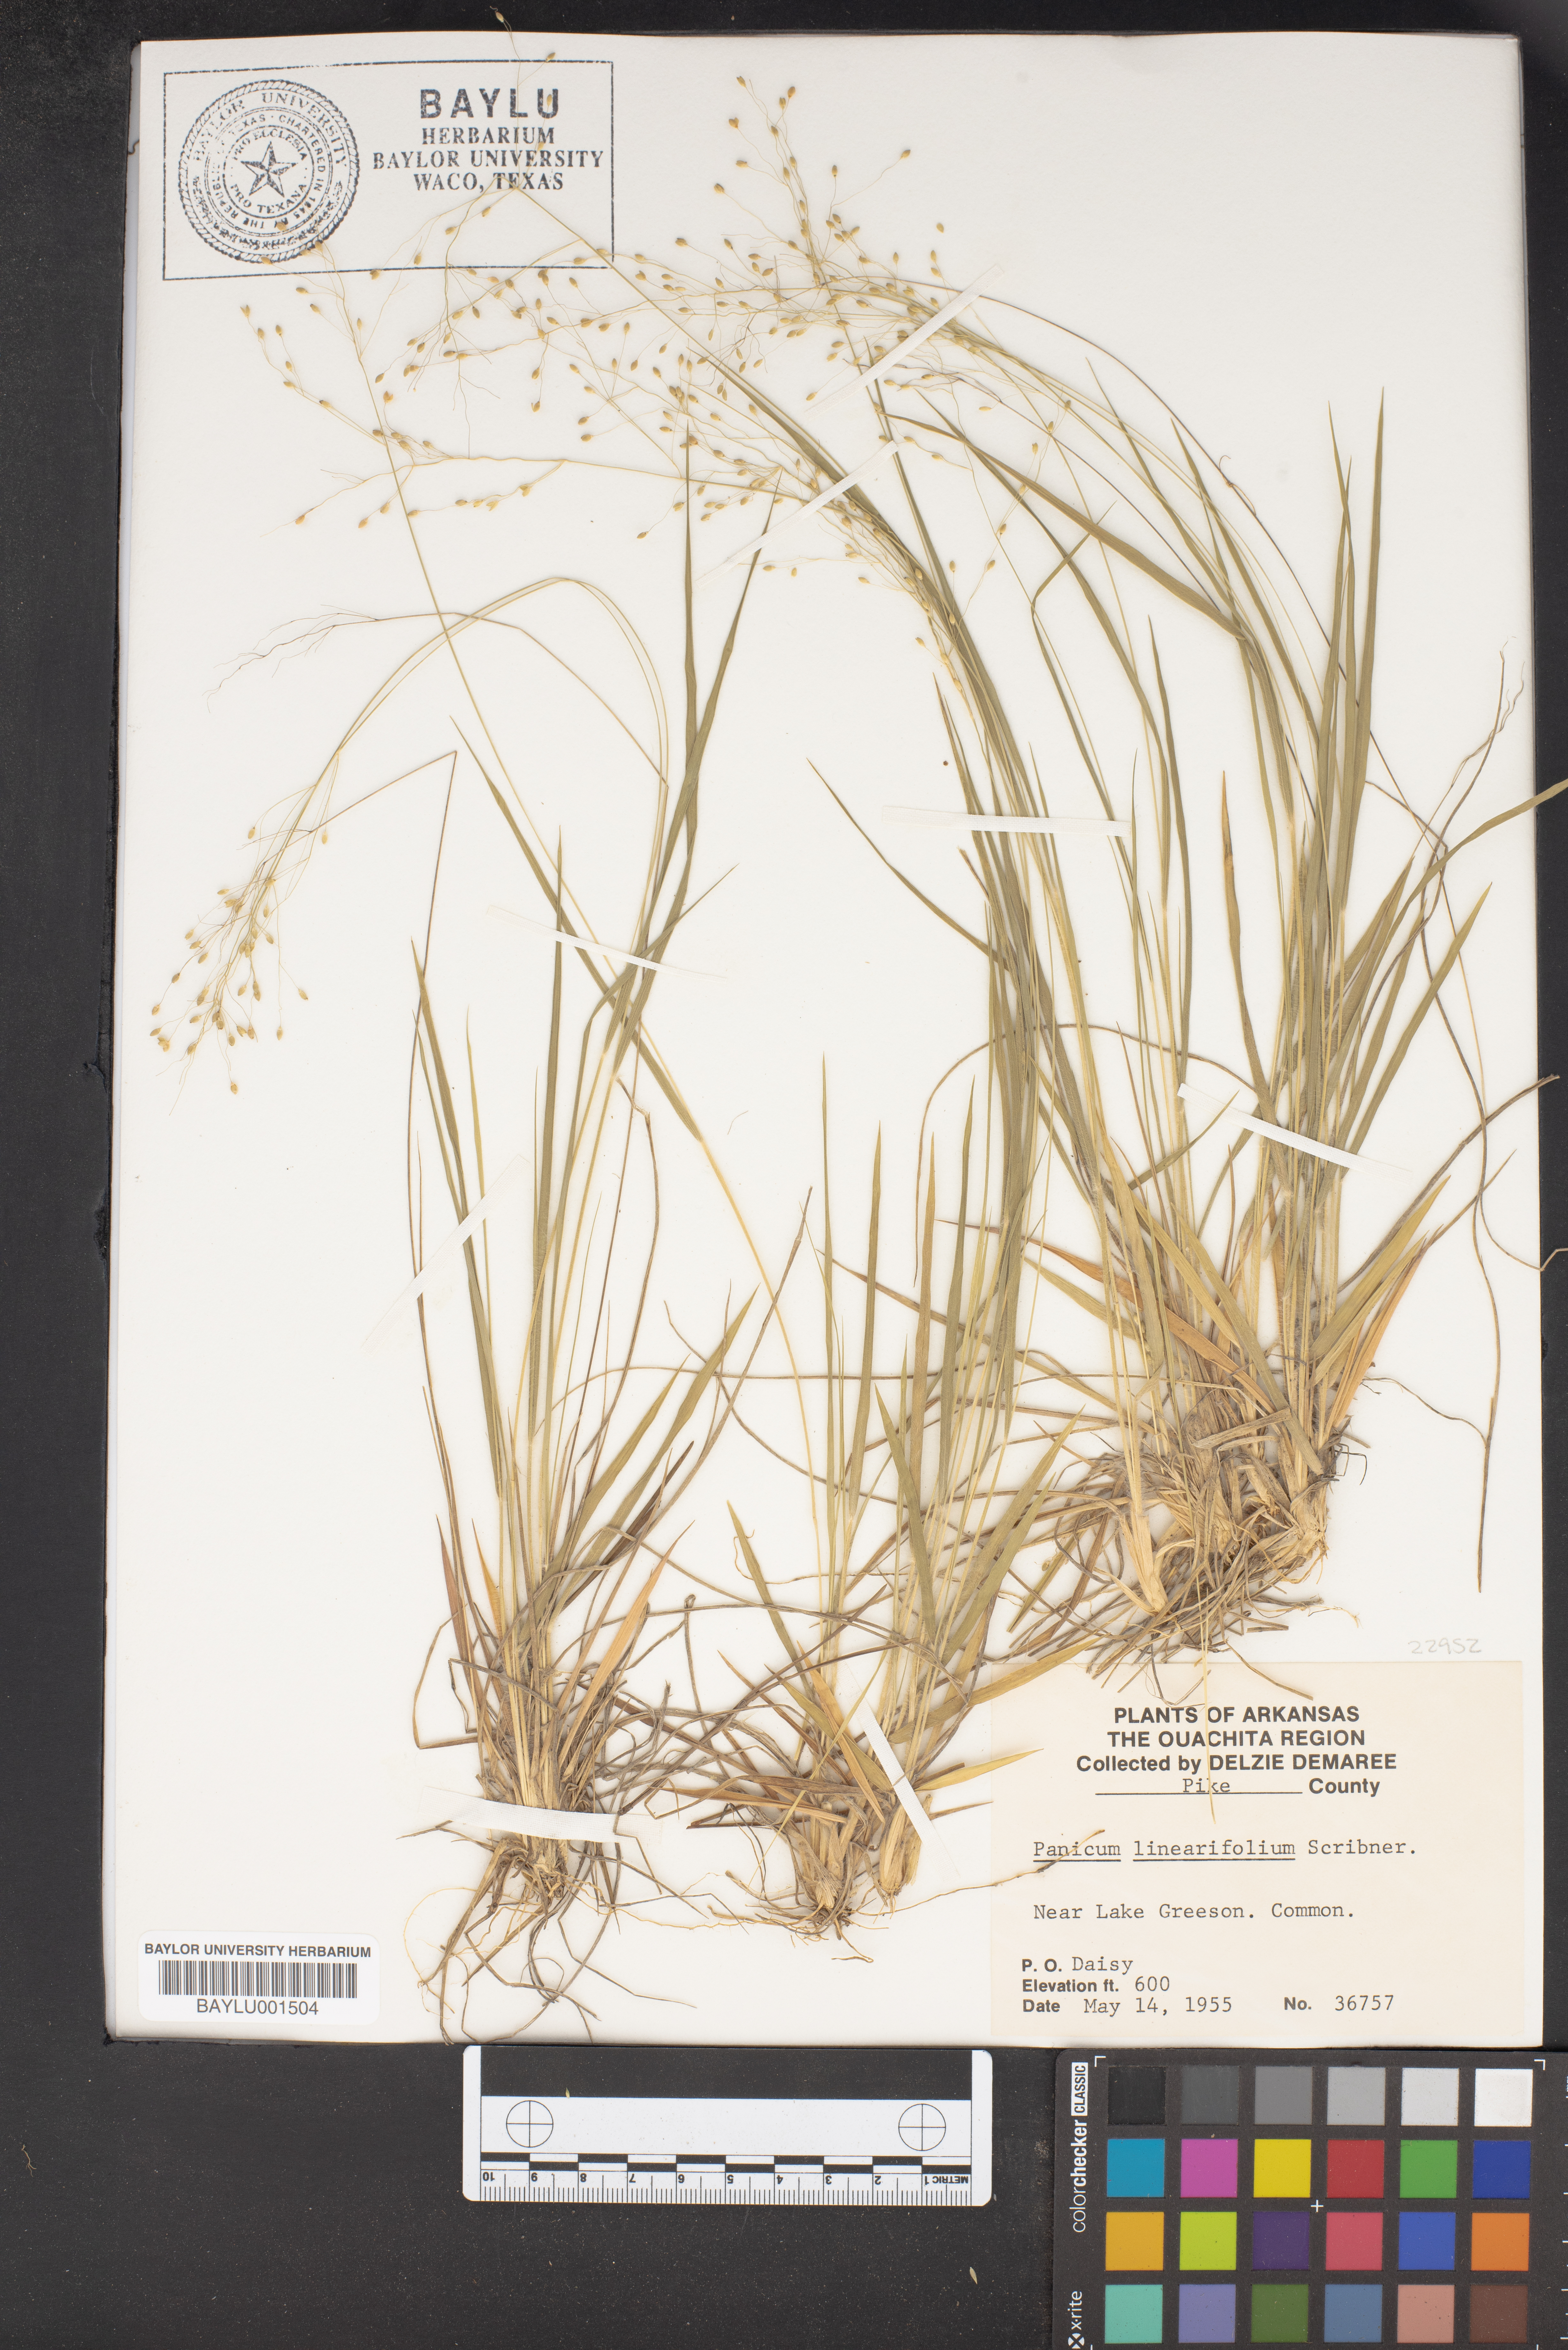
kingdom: Plantae
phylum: Tracheophyta
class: Liliopsida
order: Poales
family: Poaceae
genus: Dichanthelium
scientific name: Dichanthelium linearifolium
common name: Linear-leaved panicgrass
